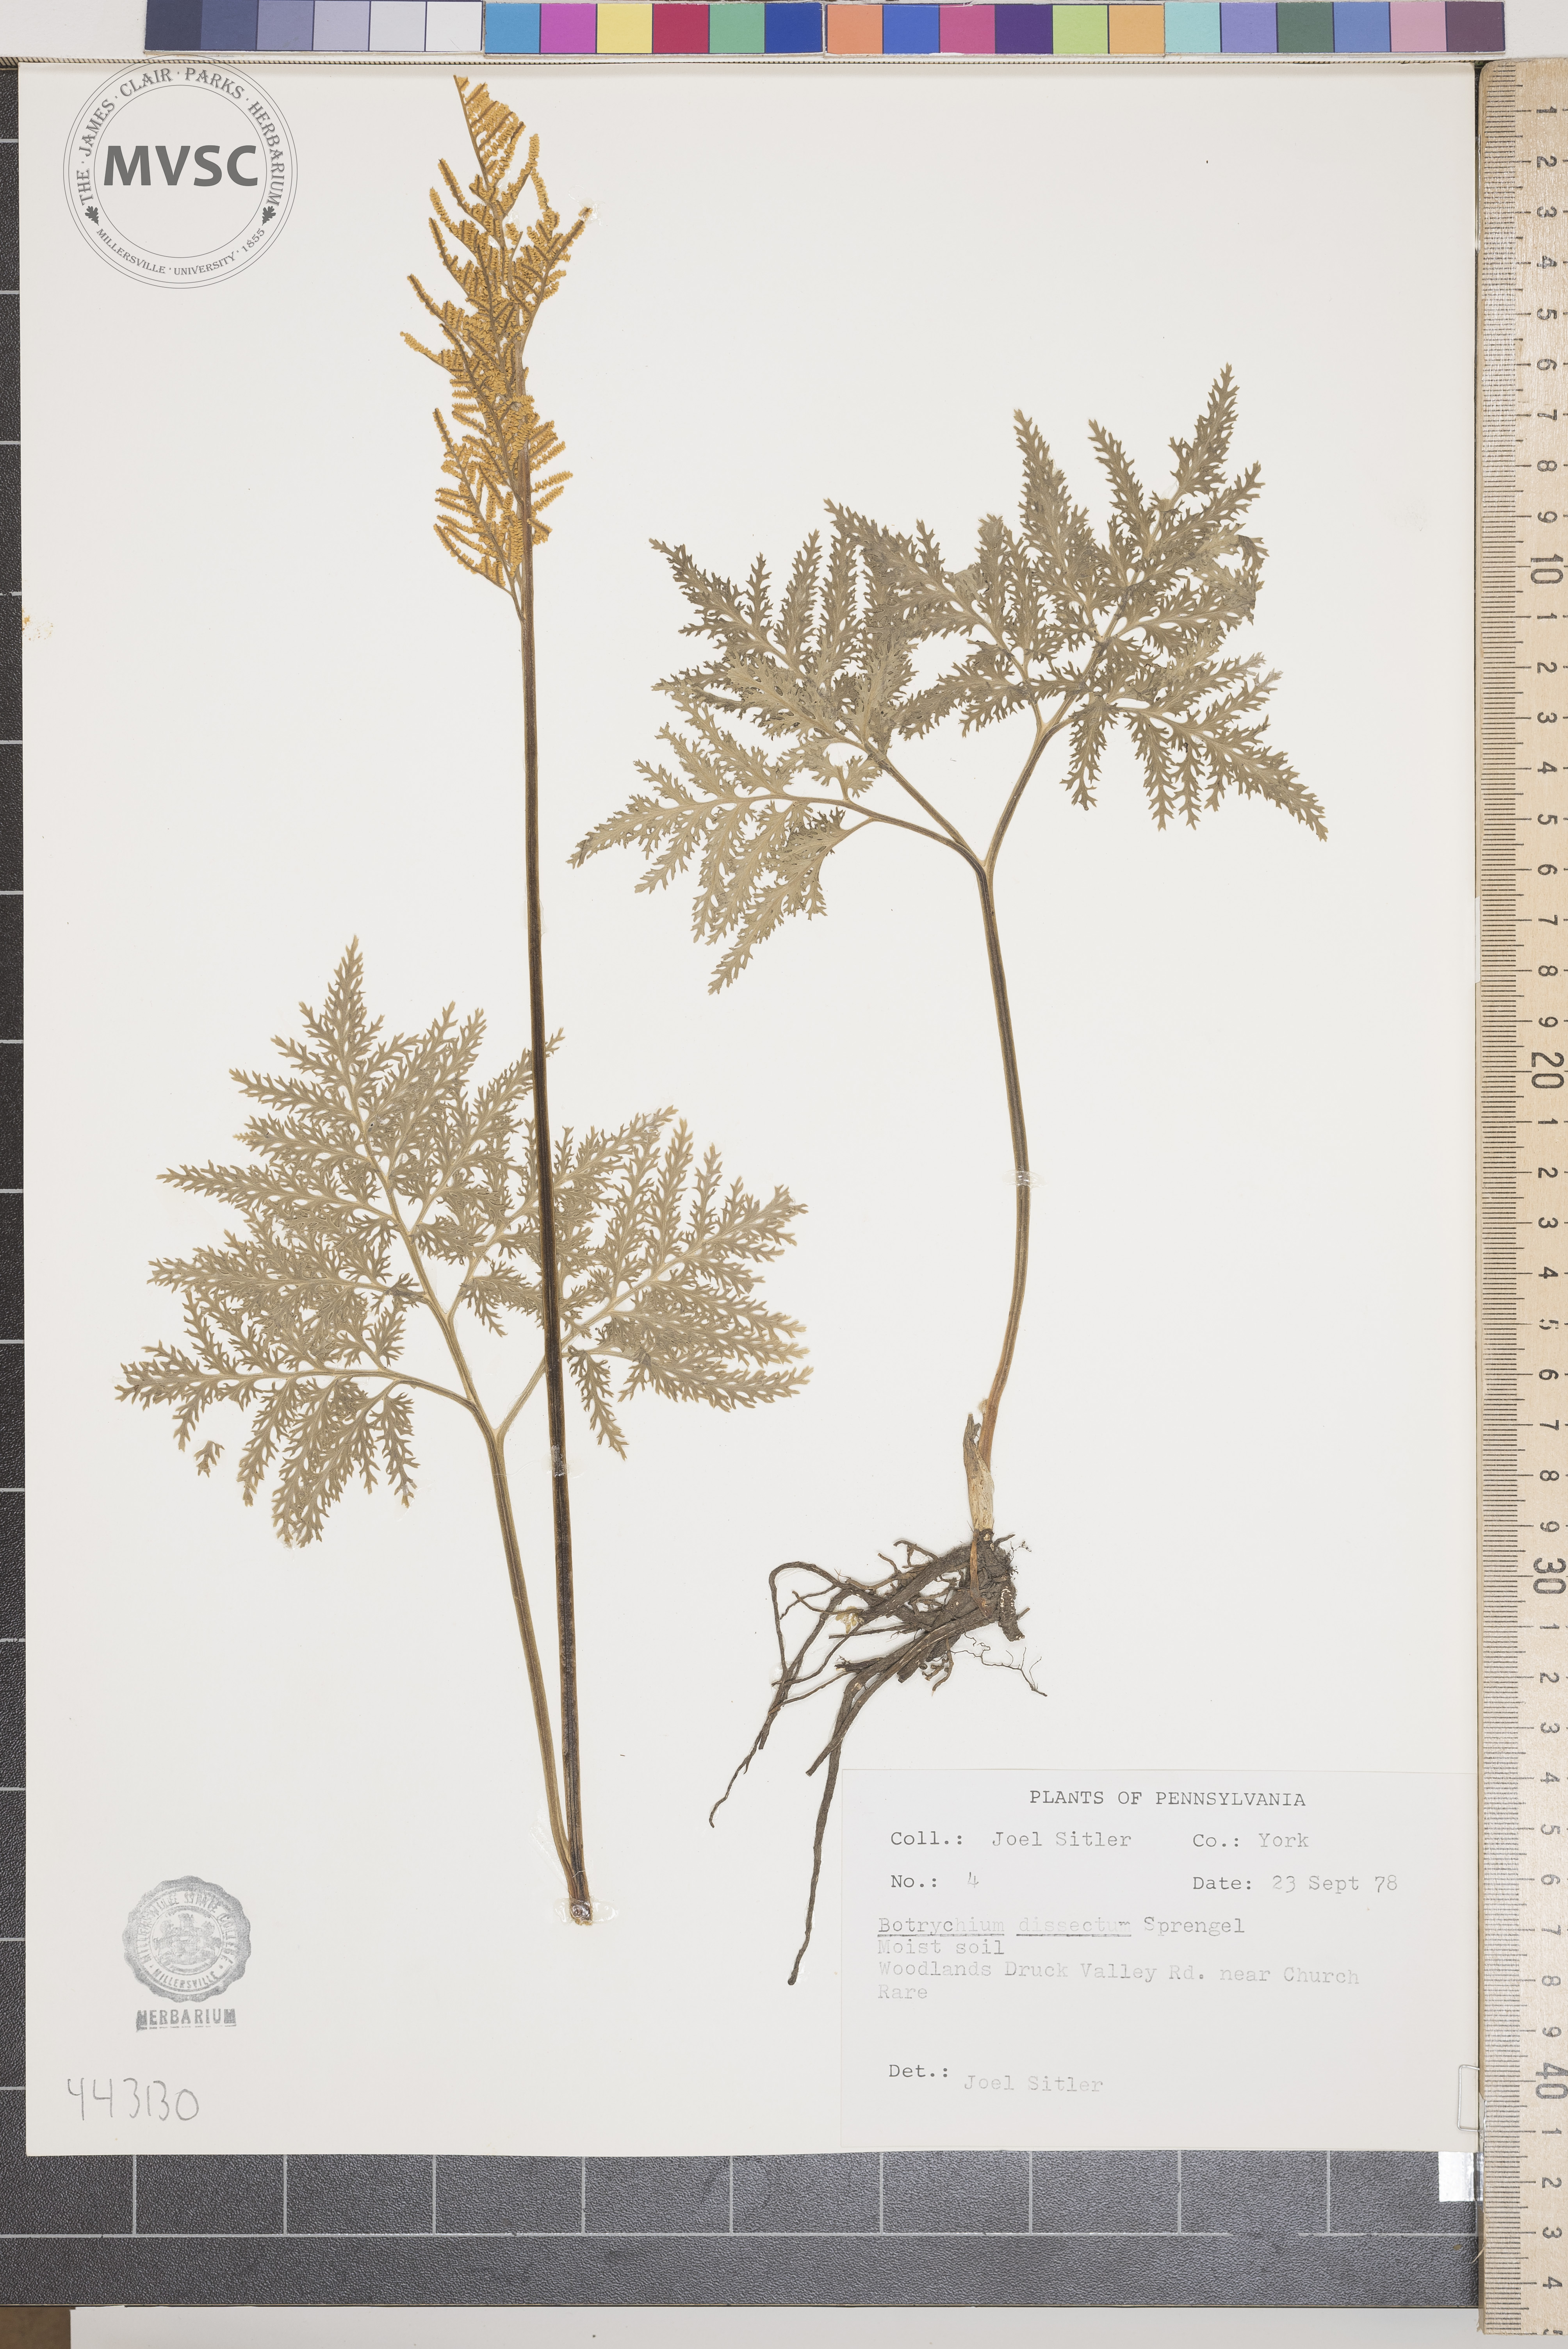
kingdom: Plantae
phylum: Tracheophyta
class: Polypodiopsida
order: Ophioglossales
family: Ophioglossaceae
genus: Sceptridium
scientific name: Sceptridium dissectum
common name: Cut-leaved grapefern
